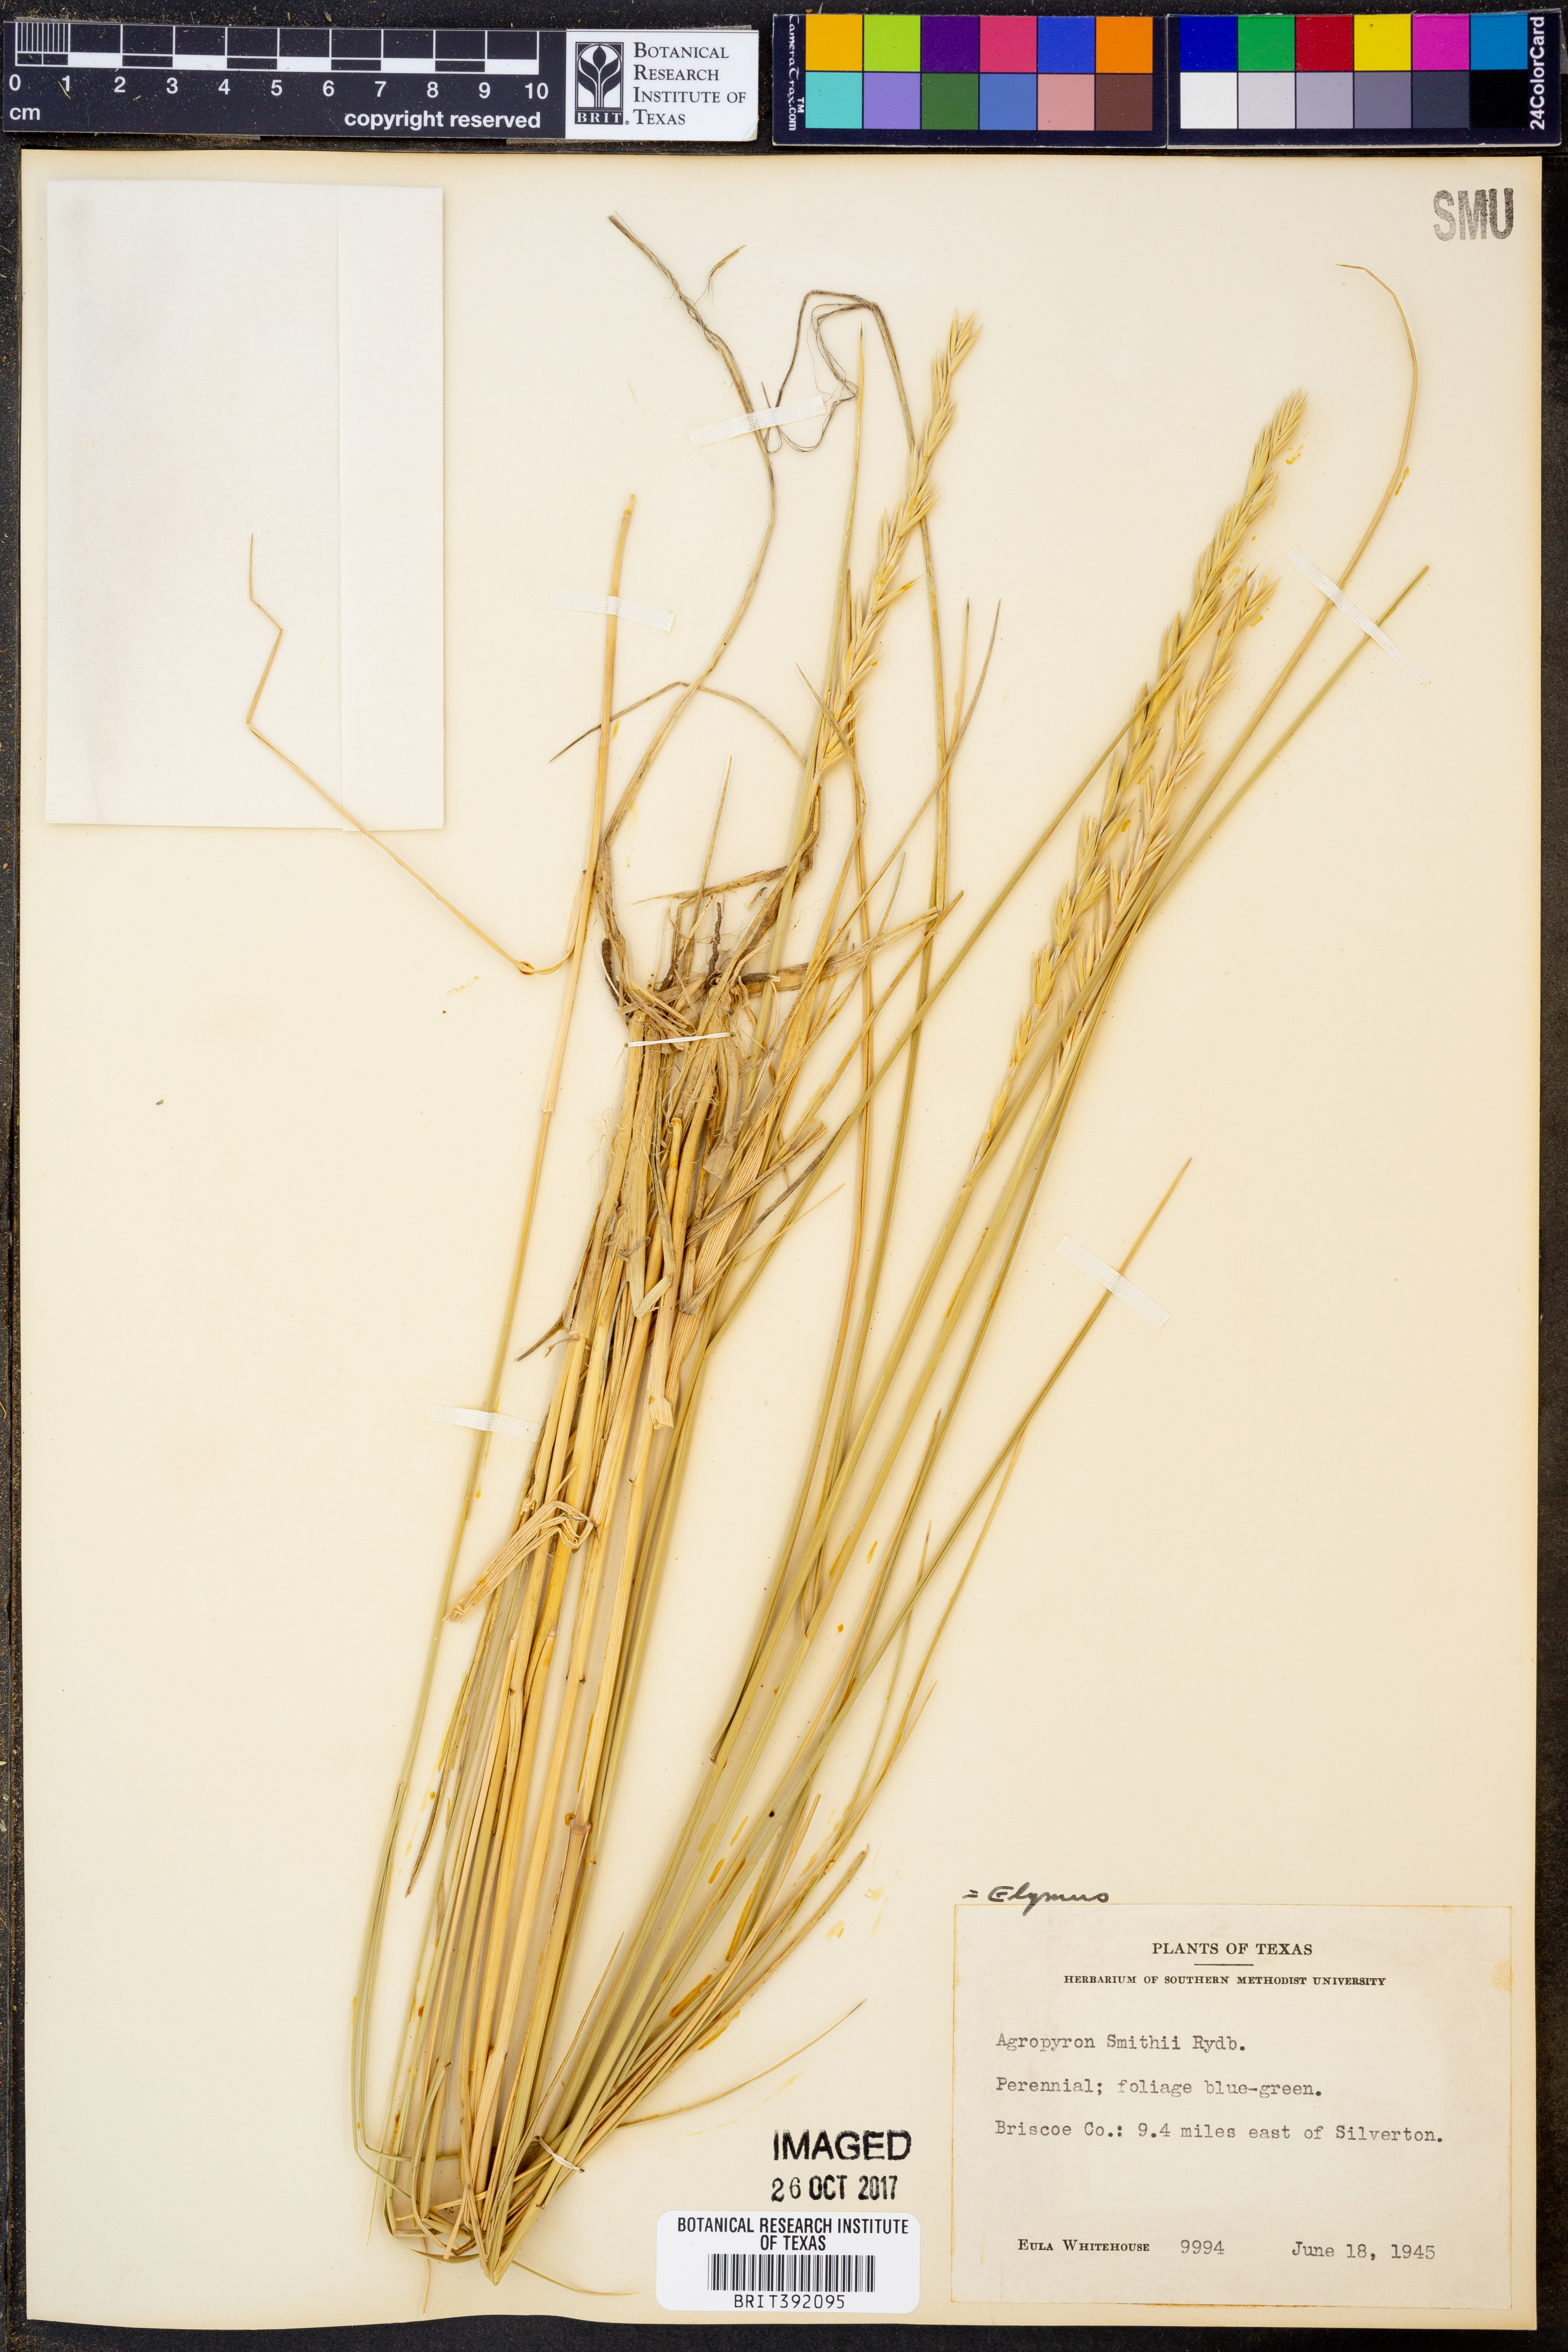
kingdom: Plantae
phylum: Tracheophyta
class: Liliopsida
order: Poales
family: Poaceae
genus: Elymus
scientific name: Elymus smithii
